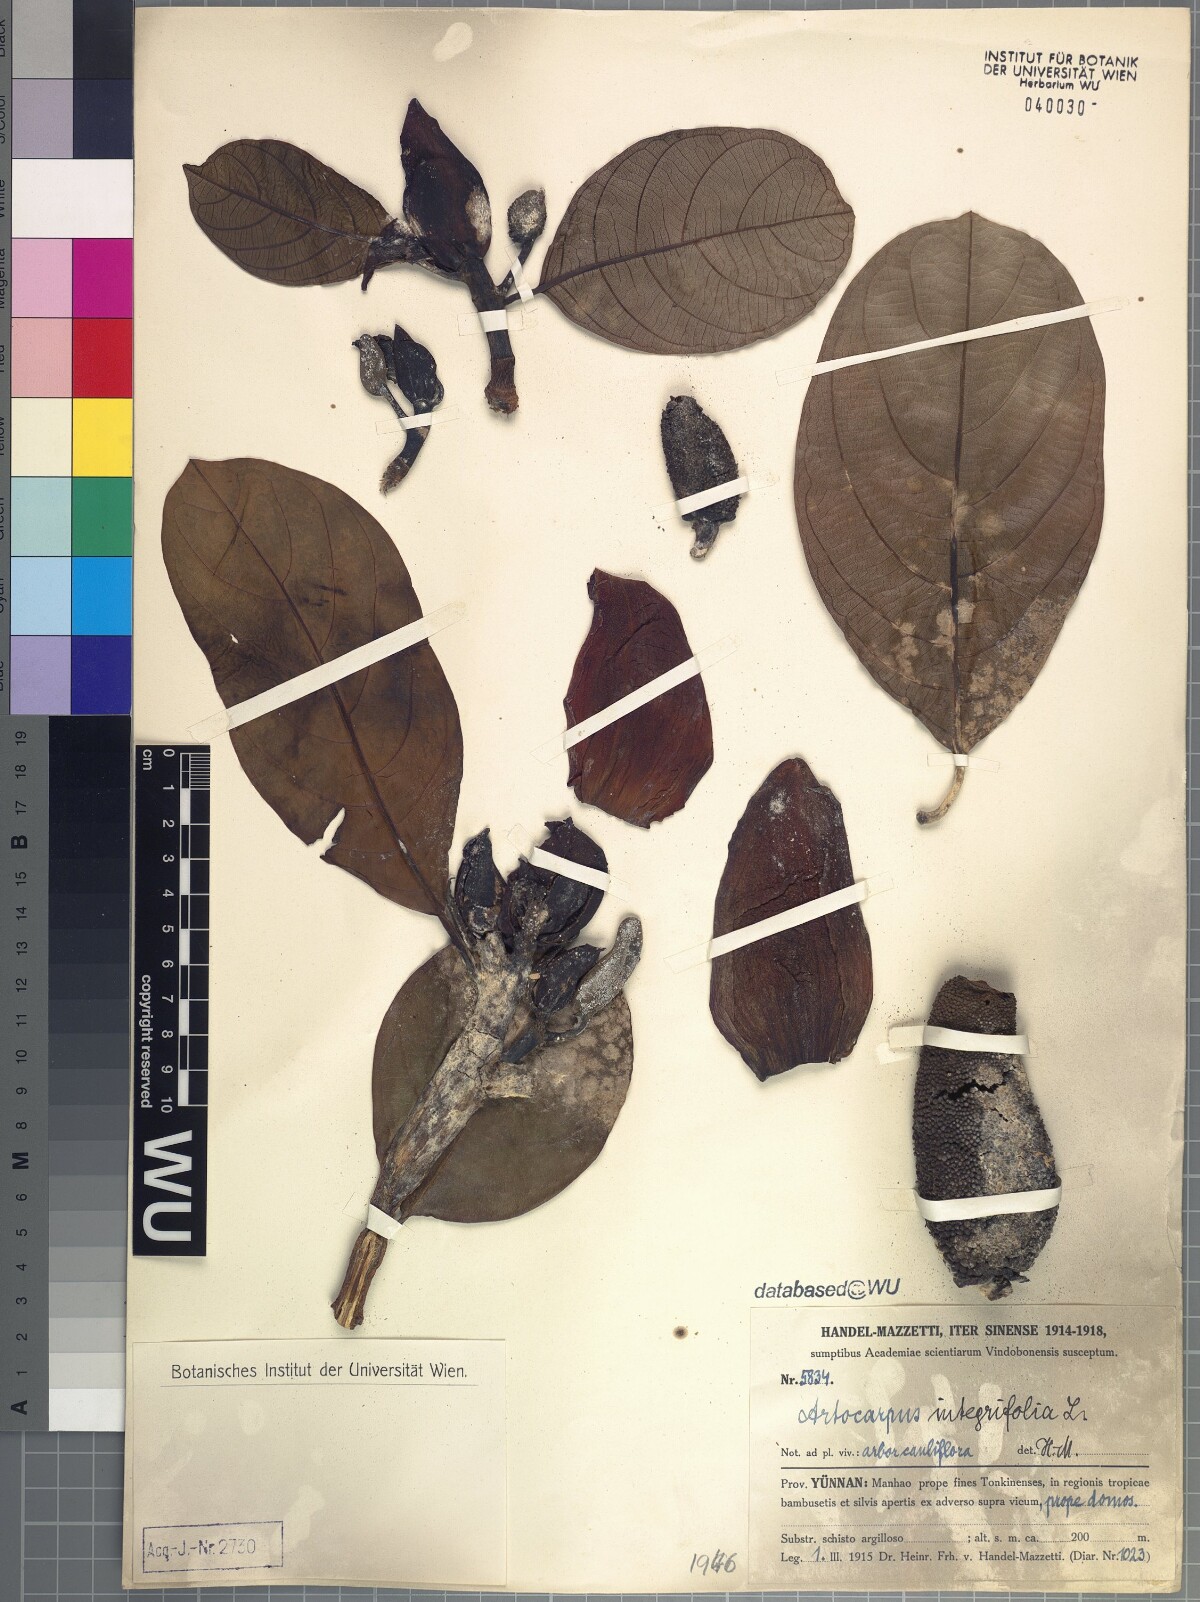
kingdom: Plantae
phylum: Tracheophyta
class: Magnoliopsida
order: Rosales
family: Moraceae
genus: Artocarpus
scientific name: Artocarpus integer
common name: Chempedak
